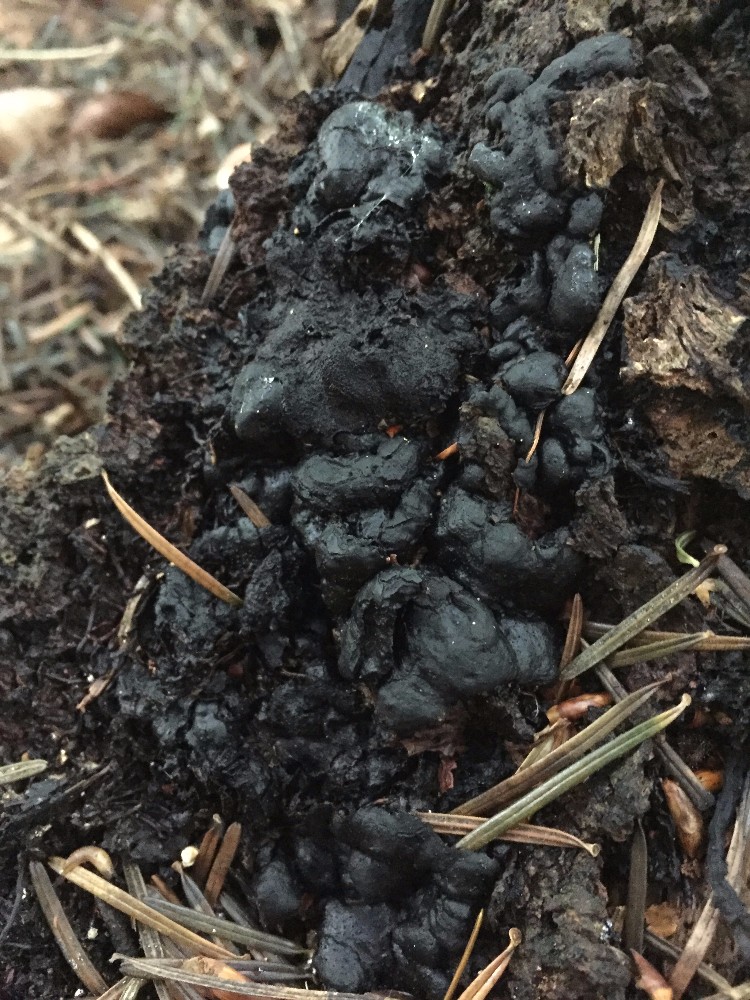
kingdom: Fungi
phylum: Ascomycota
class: Sordariomycetes
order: Xylariales
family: Xylariaceae
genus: Kretzschmaria
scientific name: Kretzschmaria deusta
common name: stor kulsvamp
